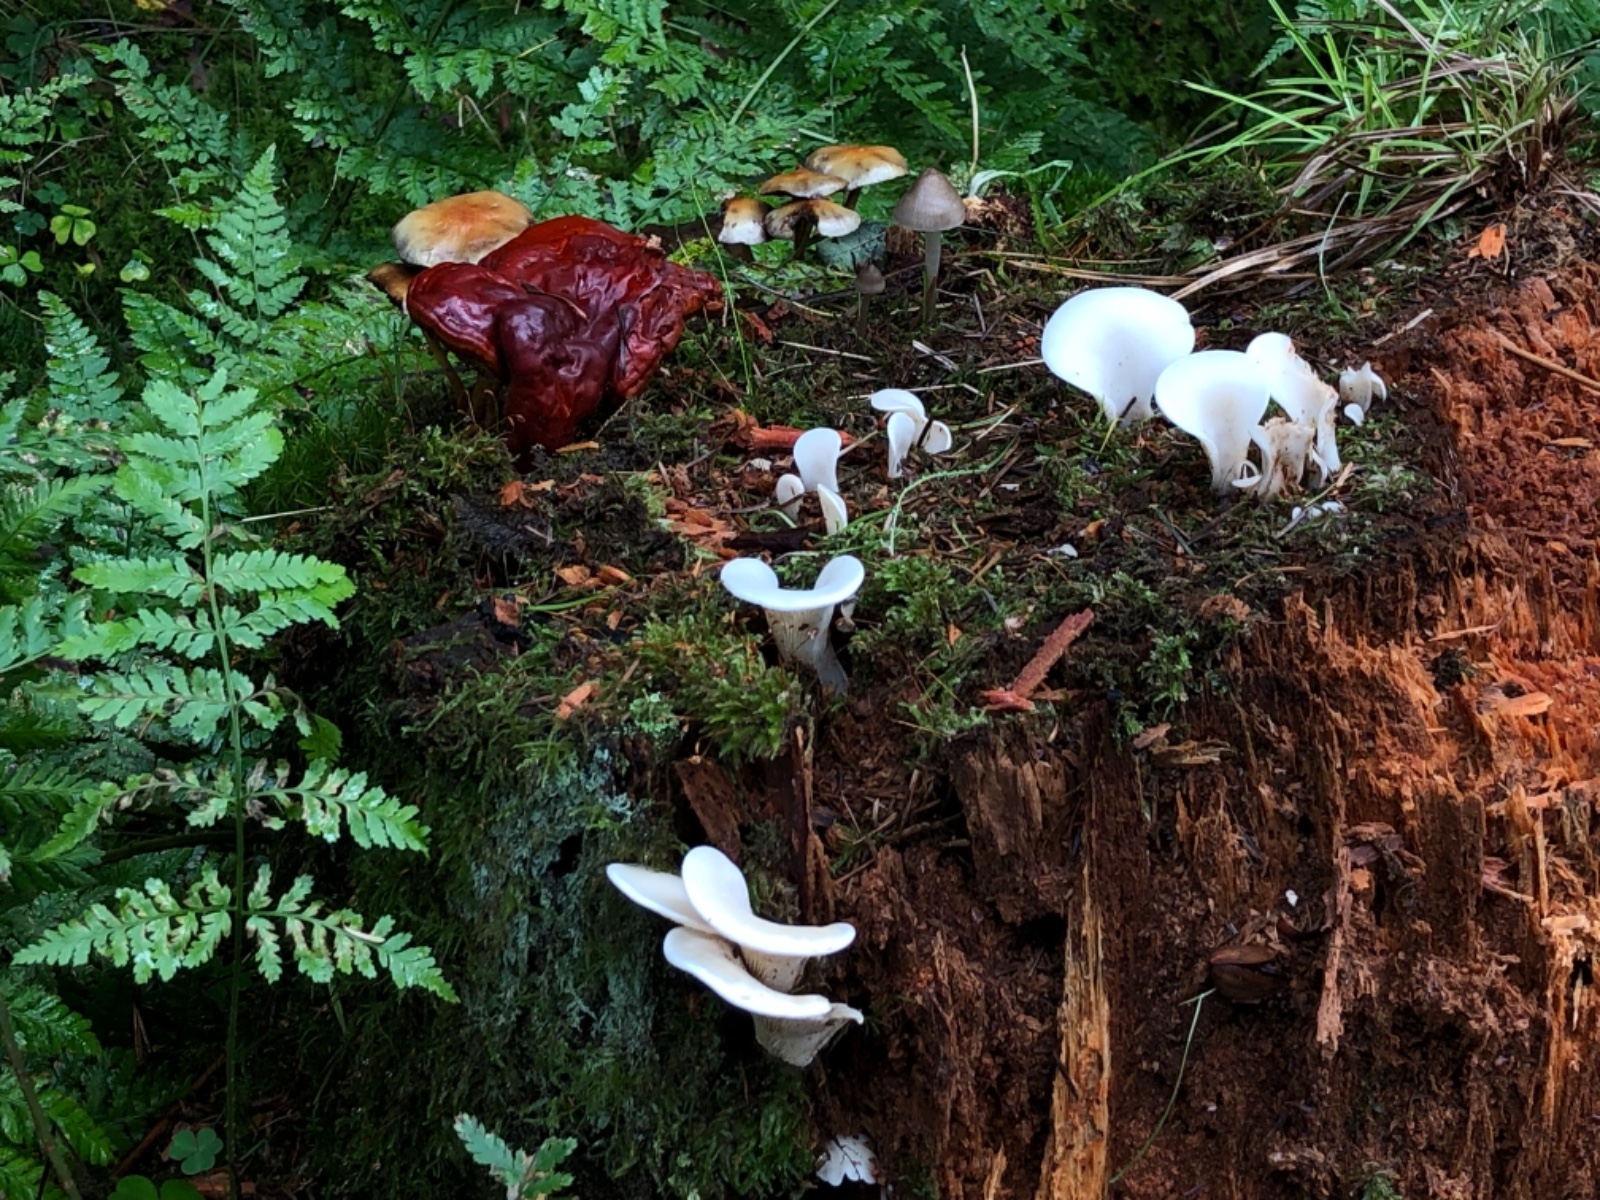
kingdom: Fungi
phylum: Basidiomycota
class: Agaricomycetes
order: Polyporales
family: Polyporaceae
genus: Ganoderma
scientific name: Ganoderma lucidum
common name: skinnende lakporesvamp
